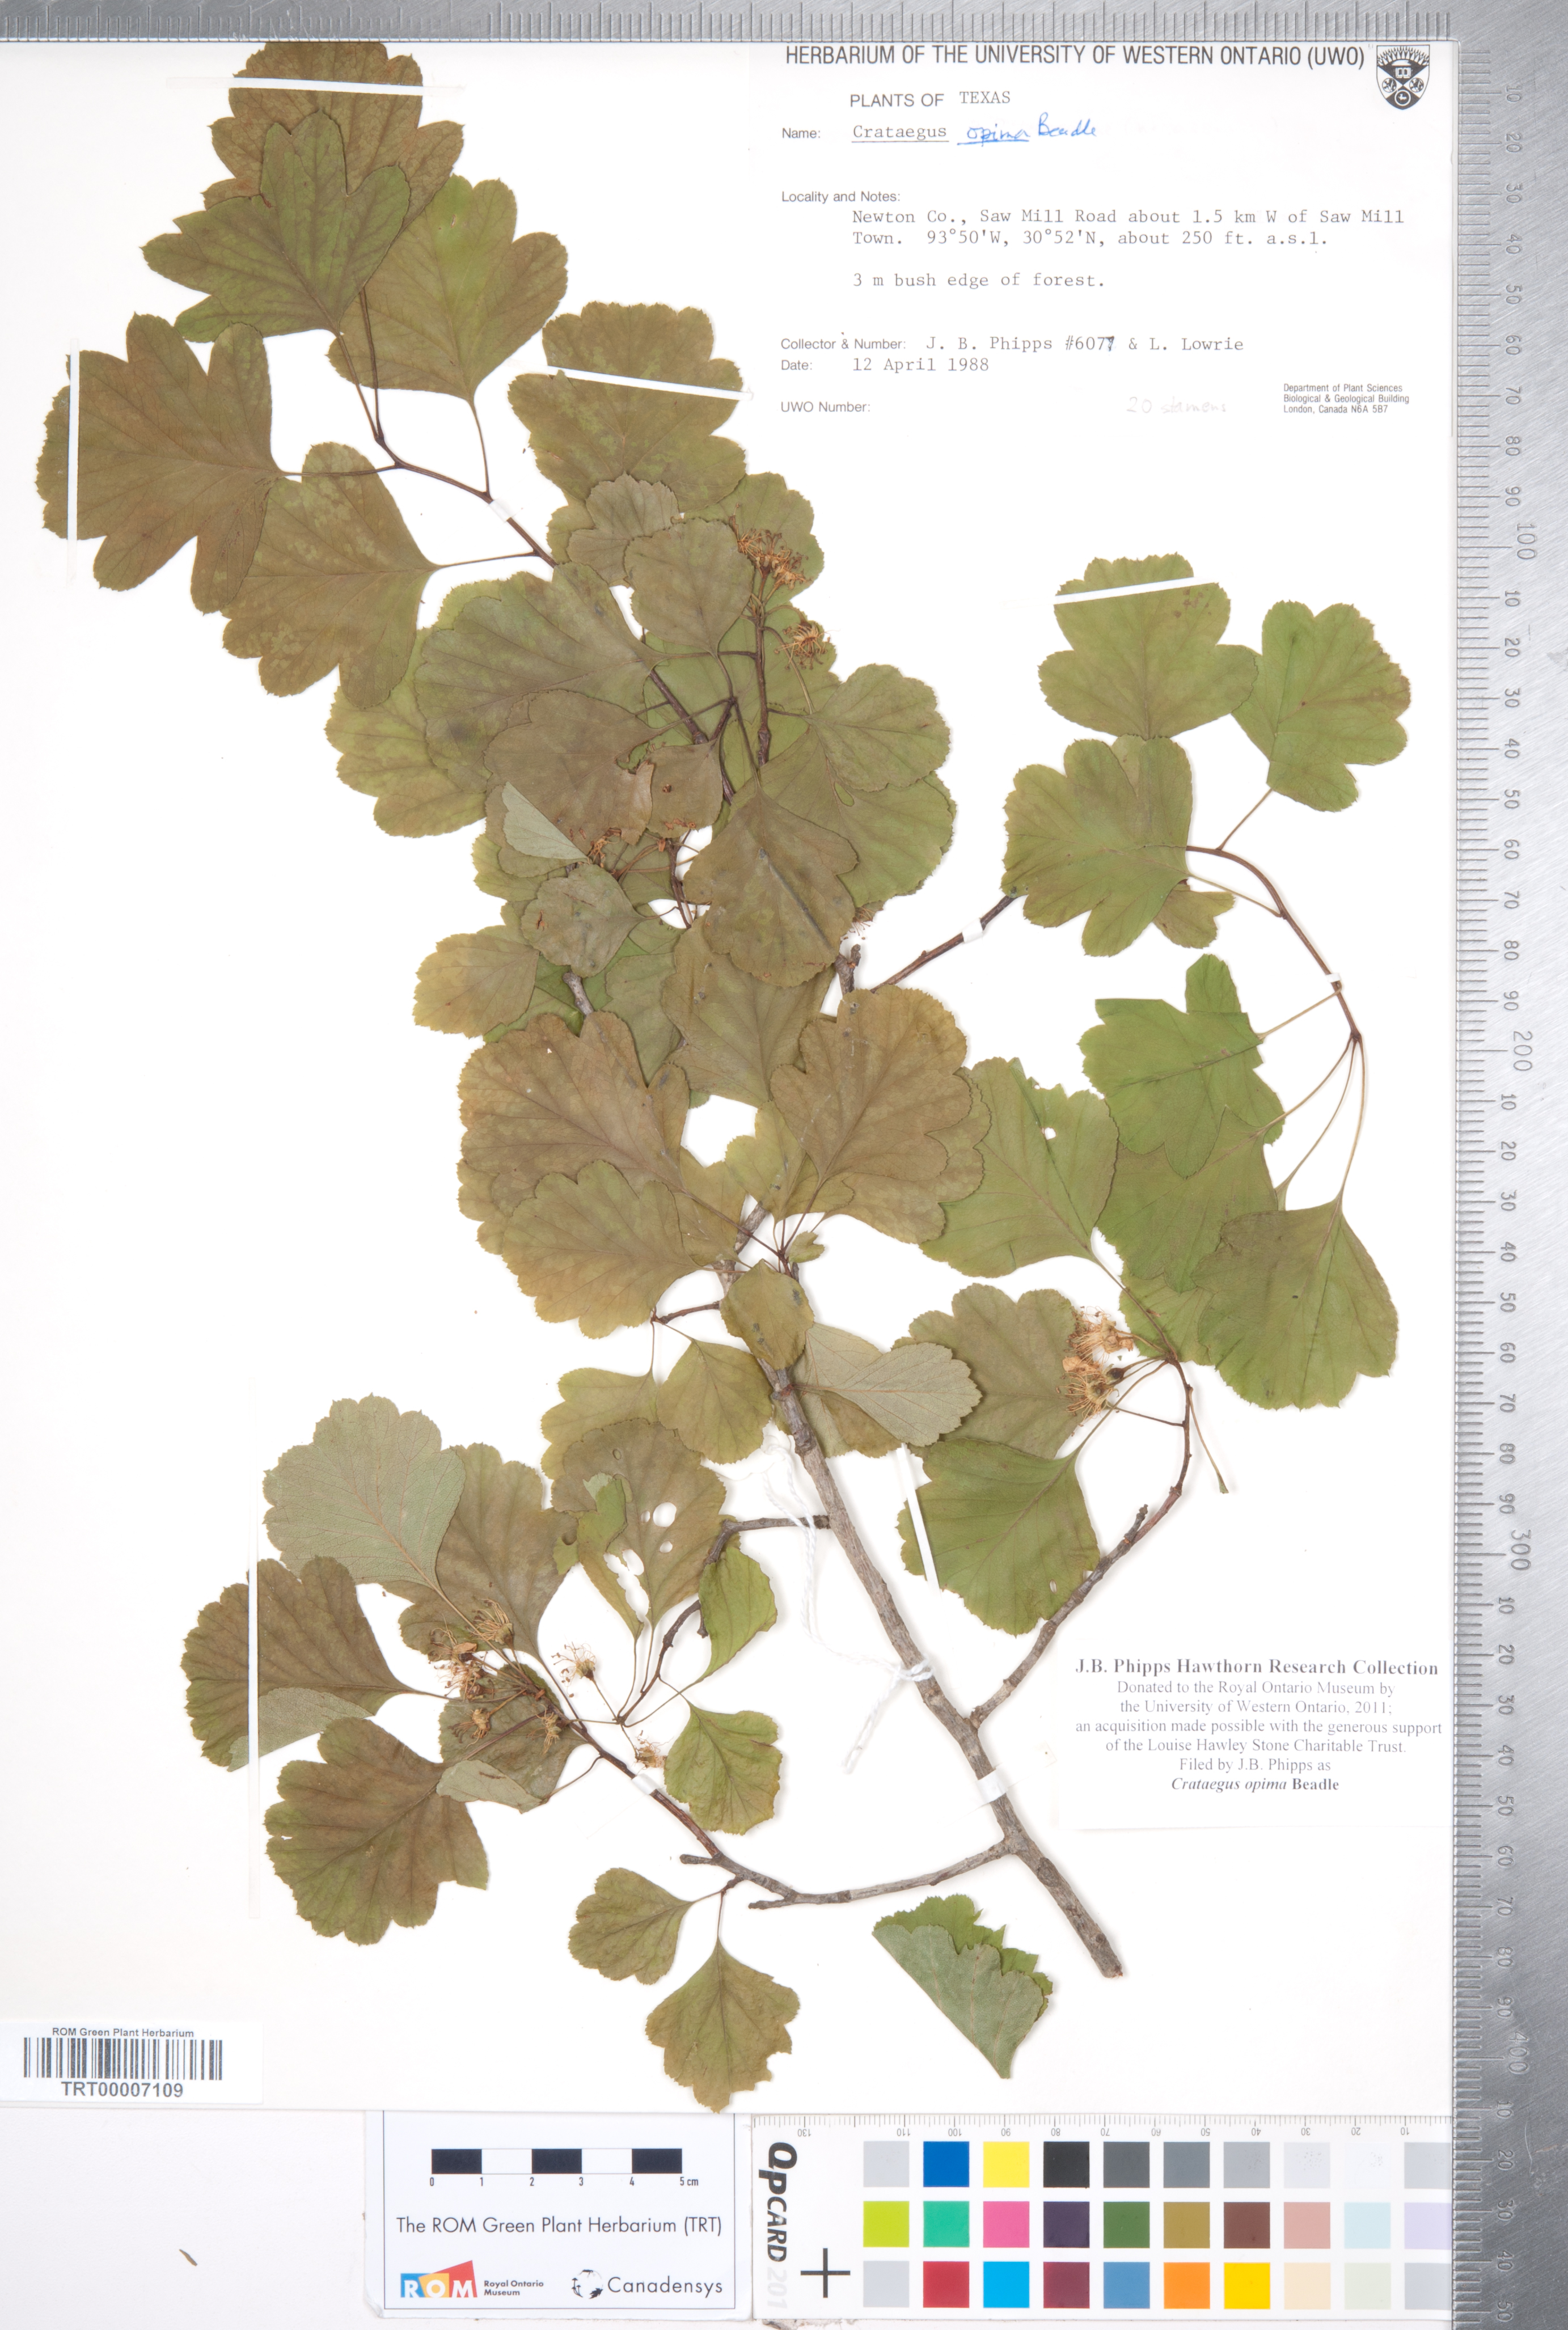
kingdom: Plantae
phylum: Tracheophyta
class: Magnoliopsida
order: Rosales
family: Rosaceae
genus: Crataegus
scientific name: Crataegus pulcherrima
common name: Beautiful hawthorn
